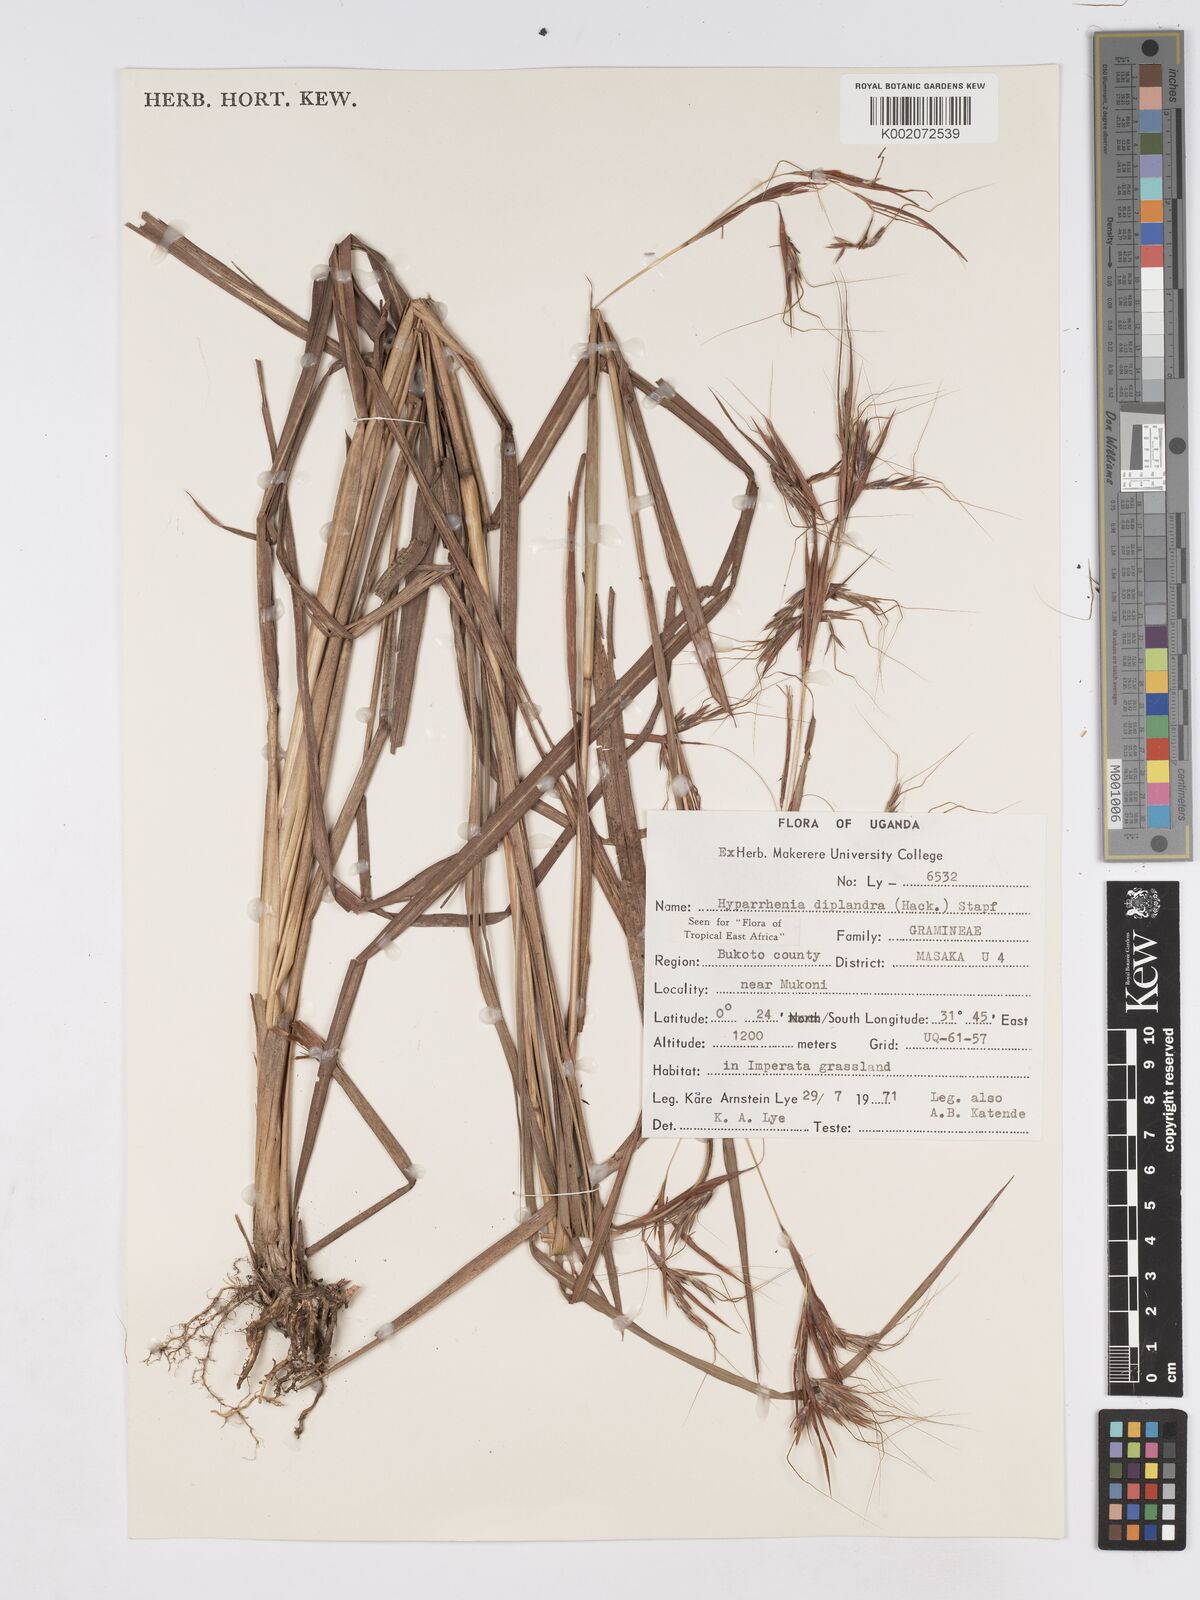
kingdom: Plantae
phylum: Tracheophyta
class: Liliopsida
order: Poales
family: Poaceae
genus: Hyparrhenia
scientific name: Hyparrhenia diplandra
